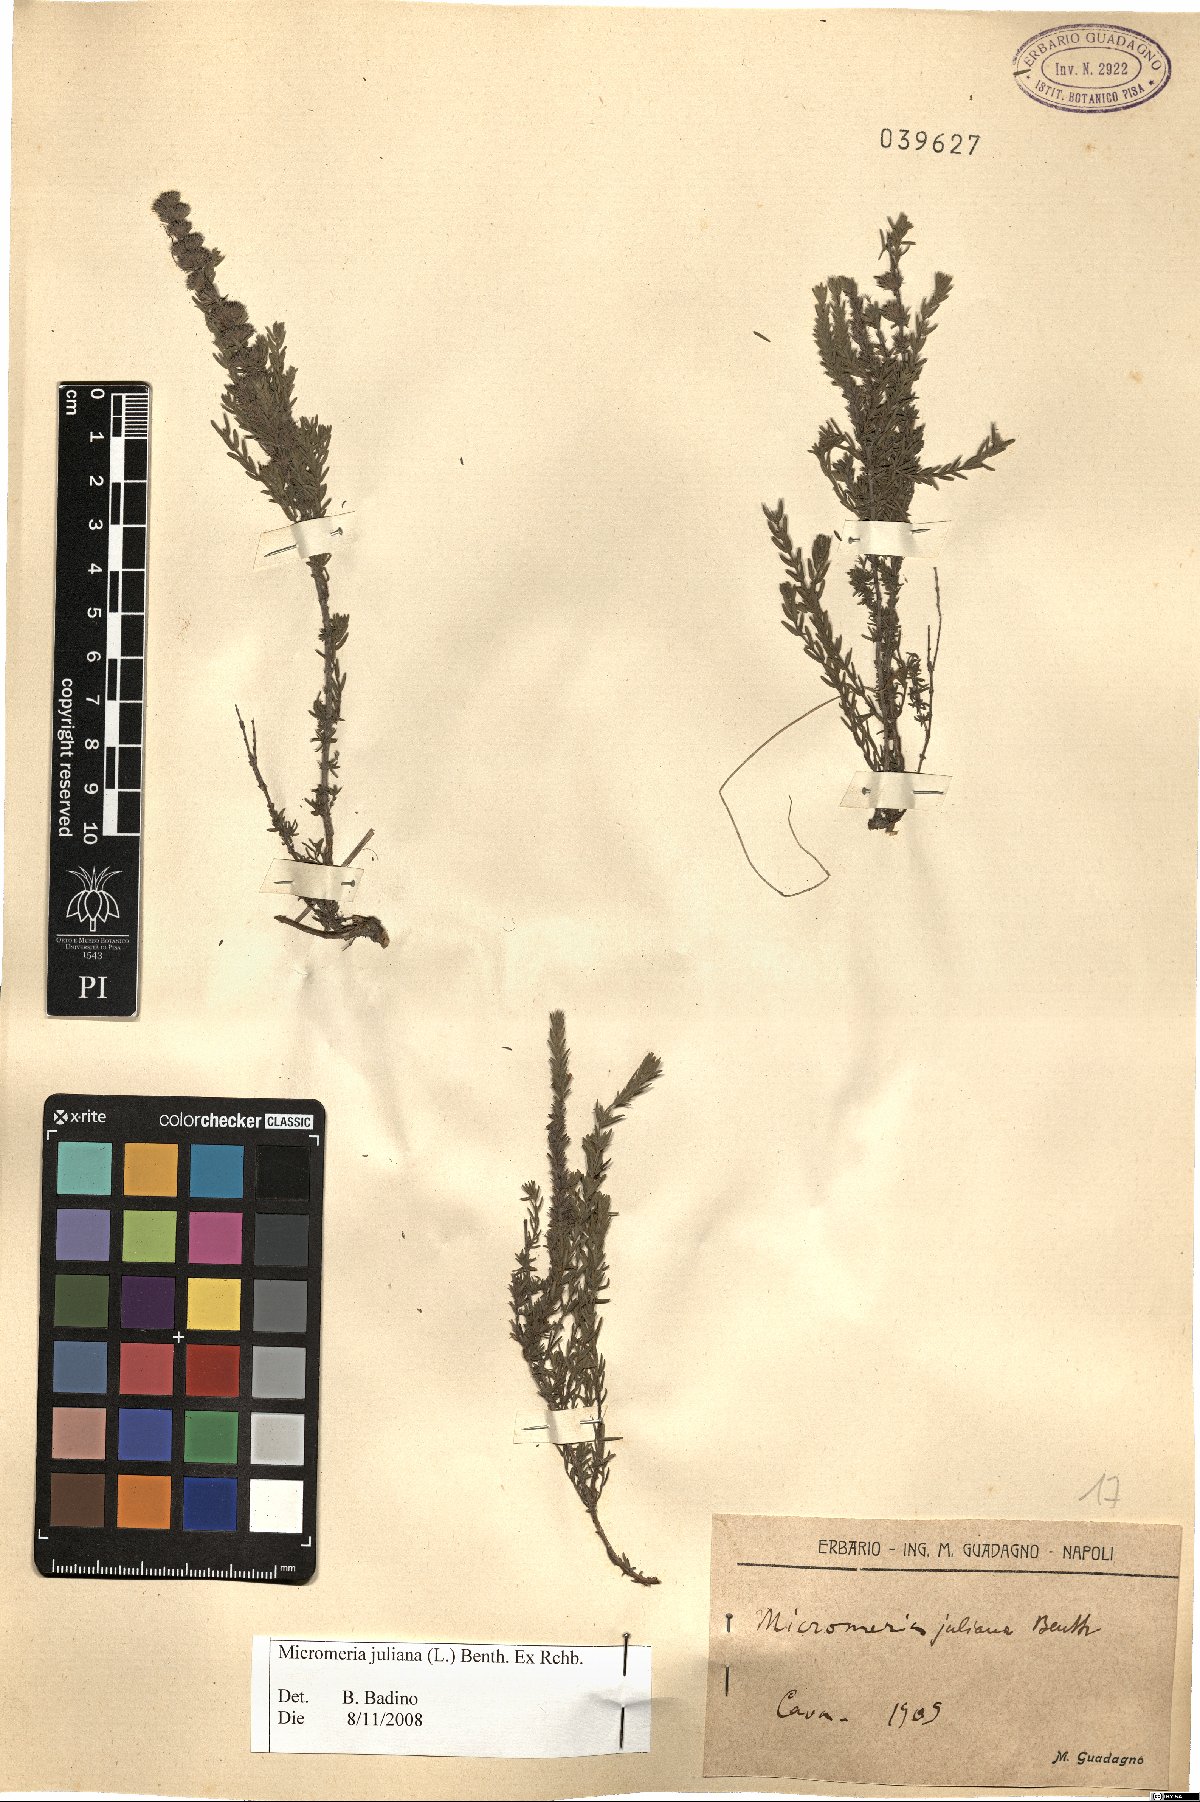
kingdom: Plantae
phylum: Tracheophyta
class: Magnoliopsida
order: Lamiales
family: Lamiaceae
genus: Micromeria
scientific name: Micromeria juliana
